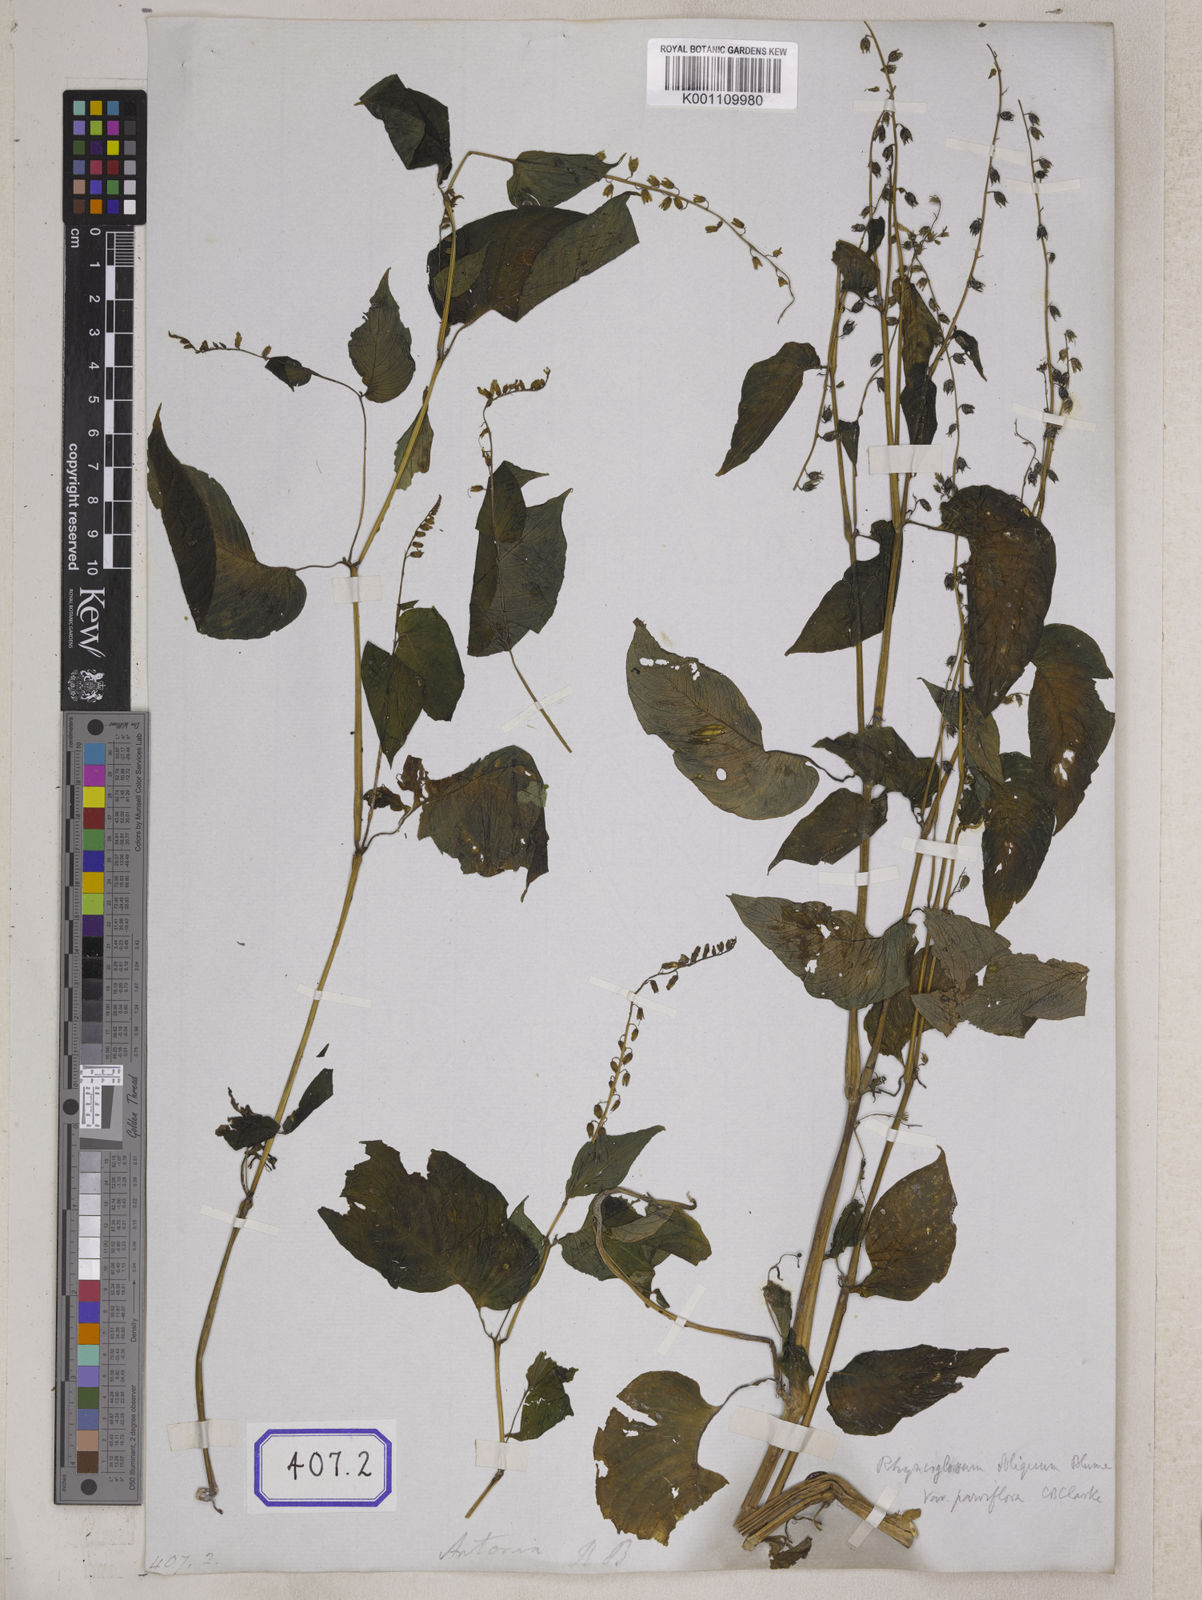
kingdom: Plantae
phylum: Tracheophyta
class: Magnoliopsida
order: Lamiales
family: Gesneriaceae
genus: Rhynchoglossum
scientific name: Rhynchoglossum
